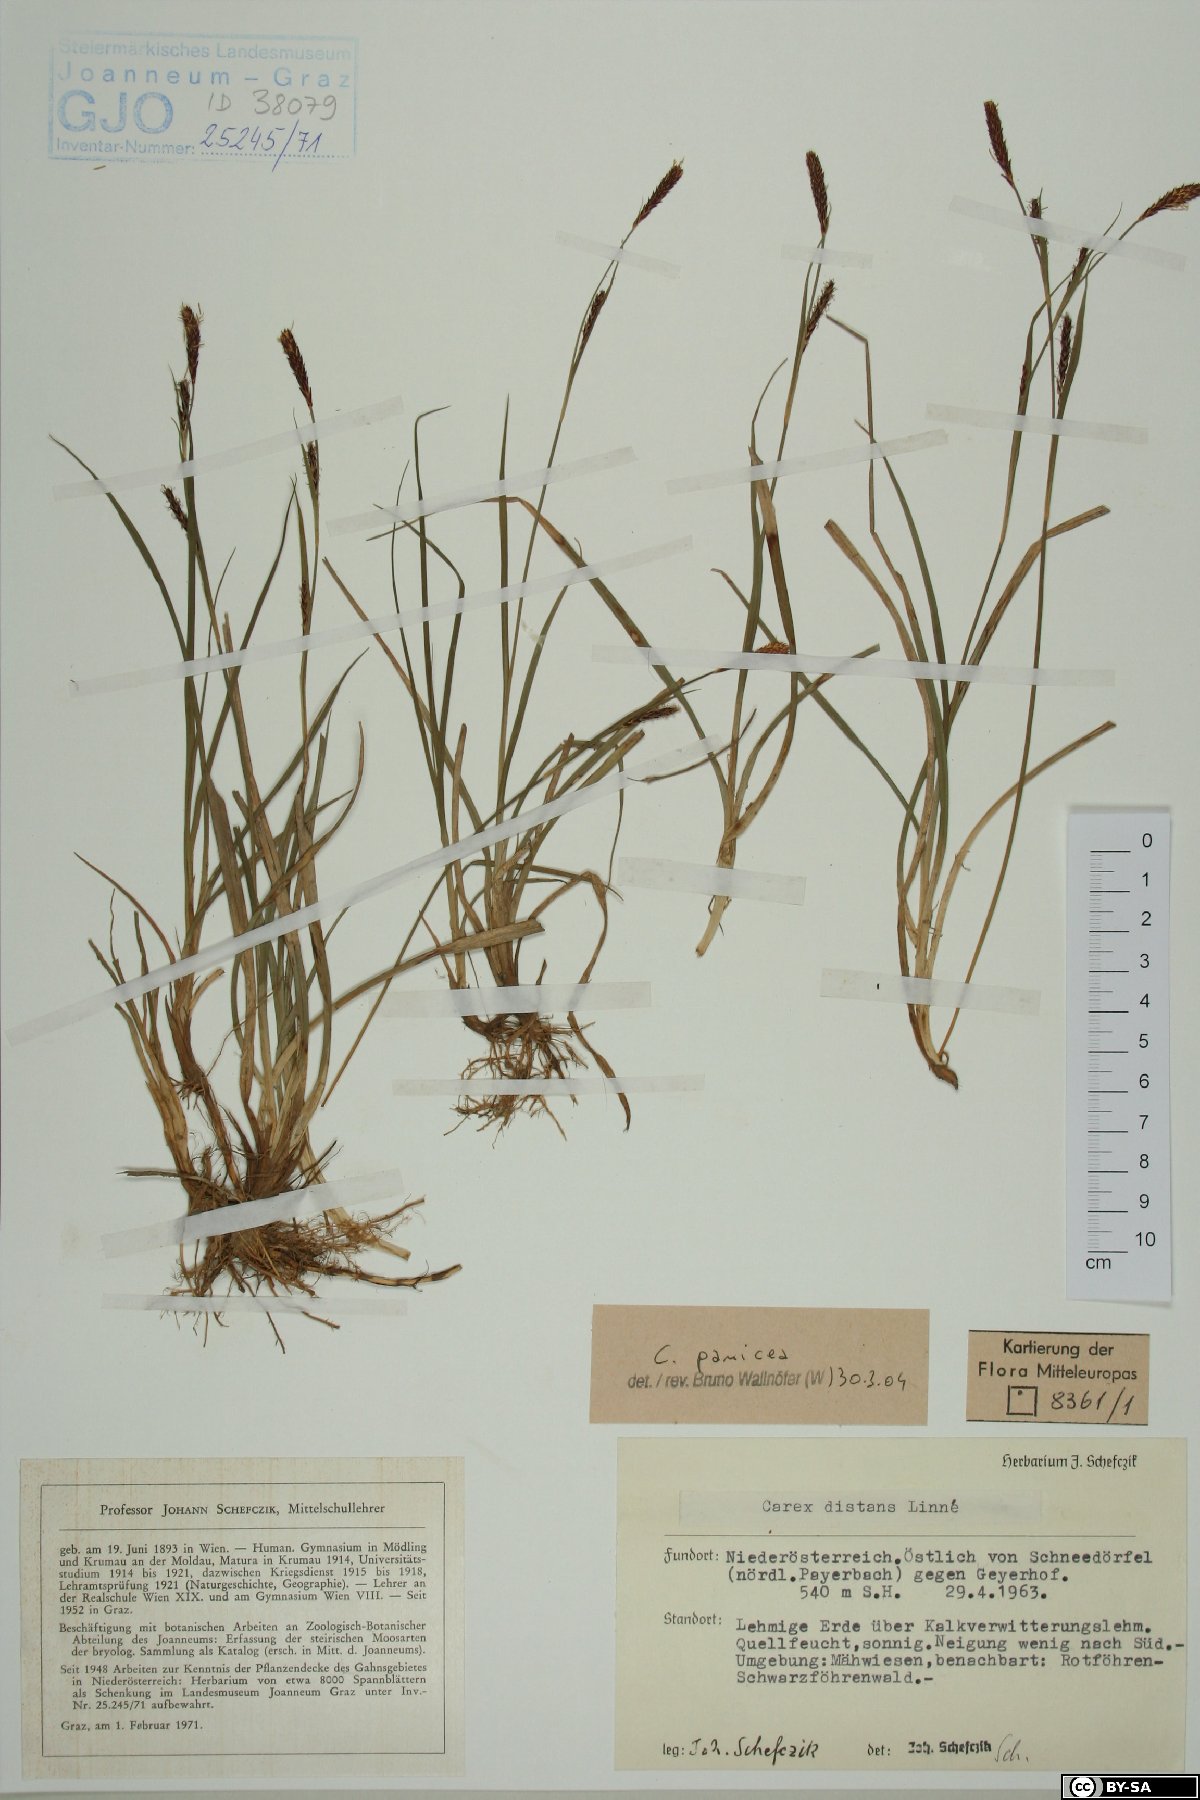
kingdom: Plantae
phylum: Tracheophyta
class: Liliopsida
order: Poales
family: Cyperaceae
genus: Carex
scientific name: Carex panicea
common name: Carnation sedge
